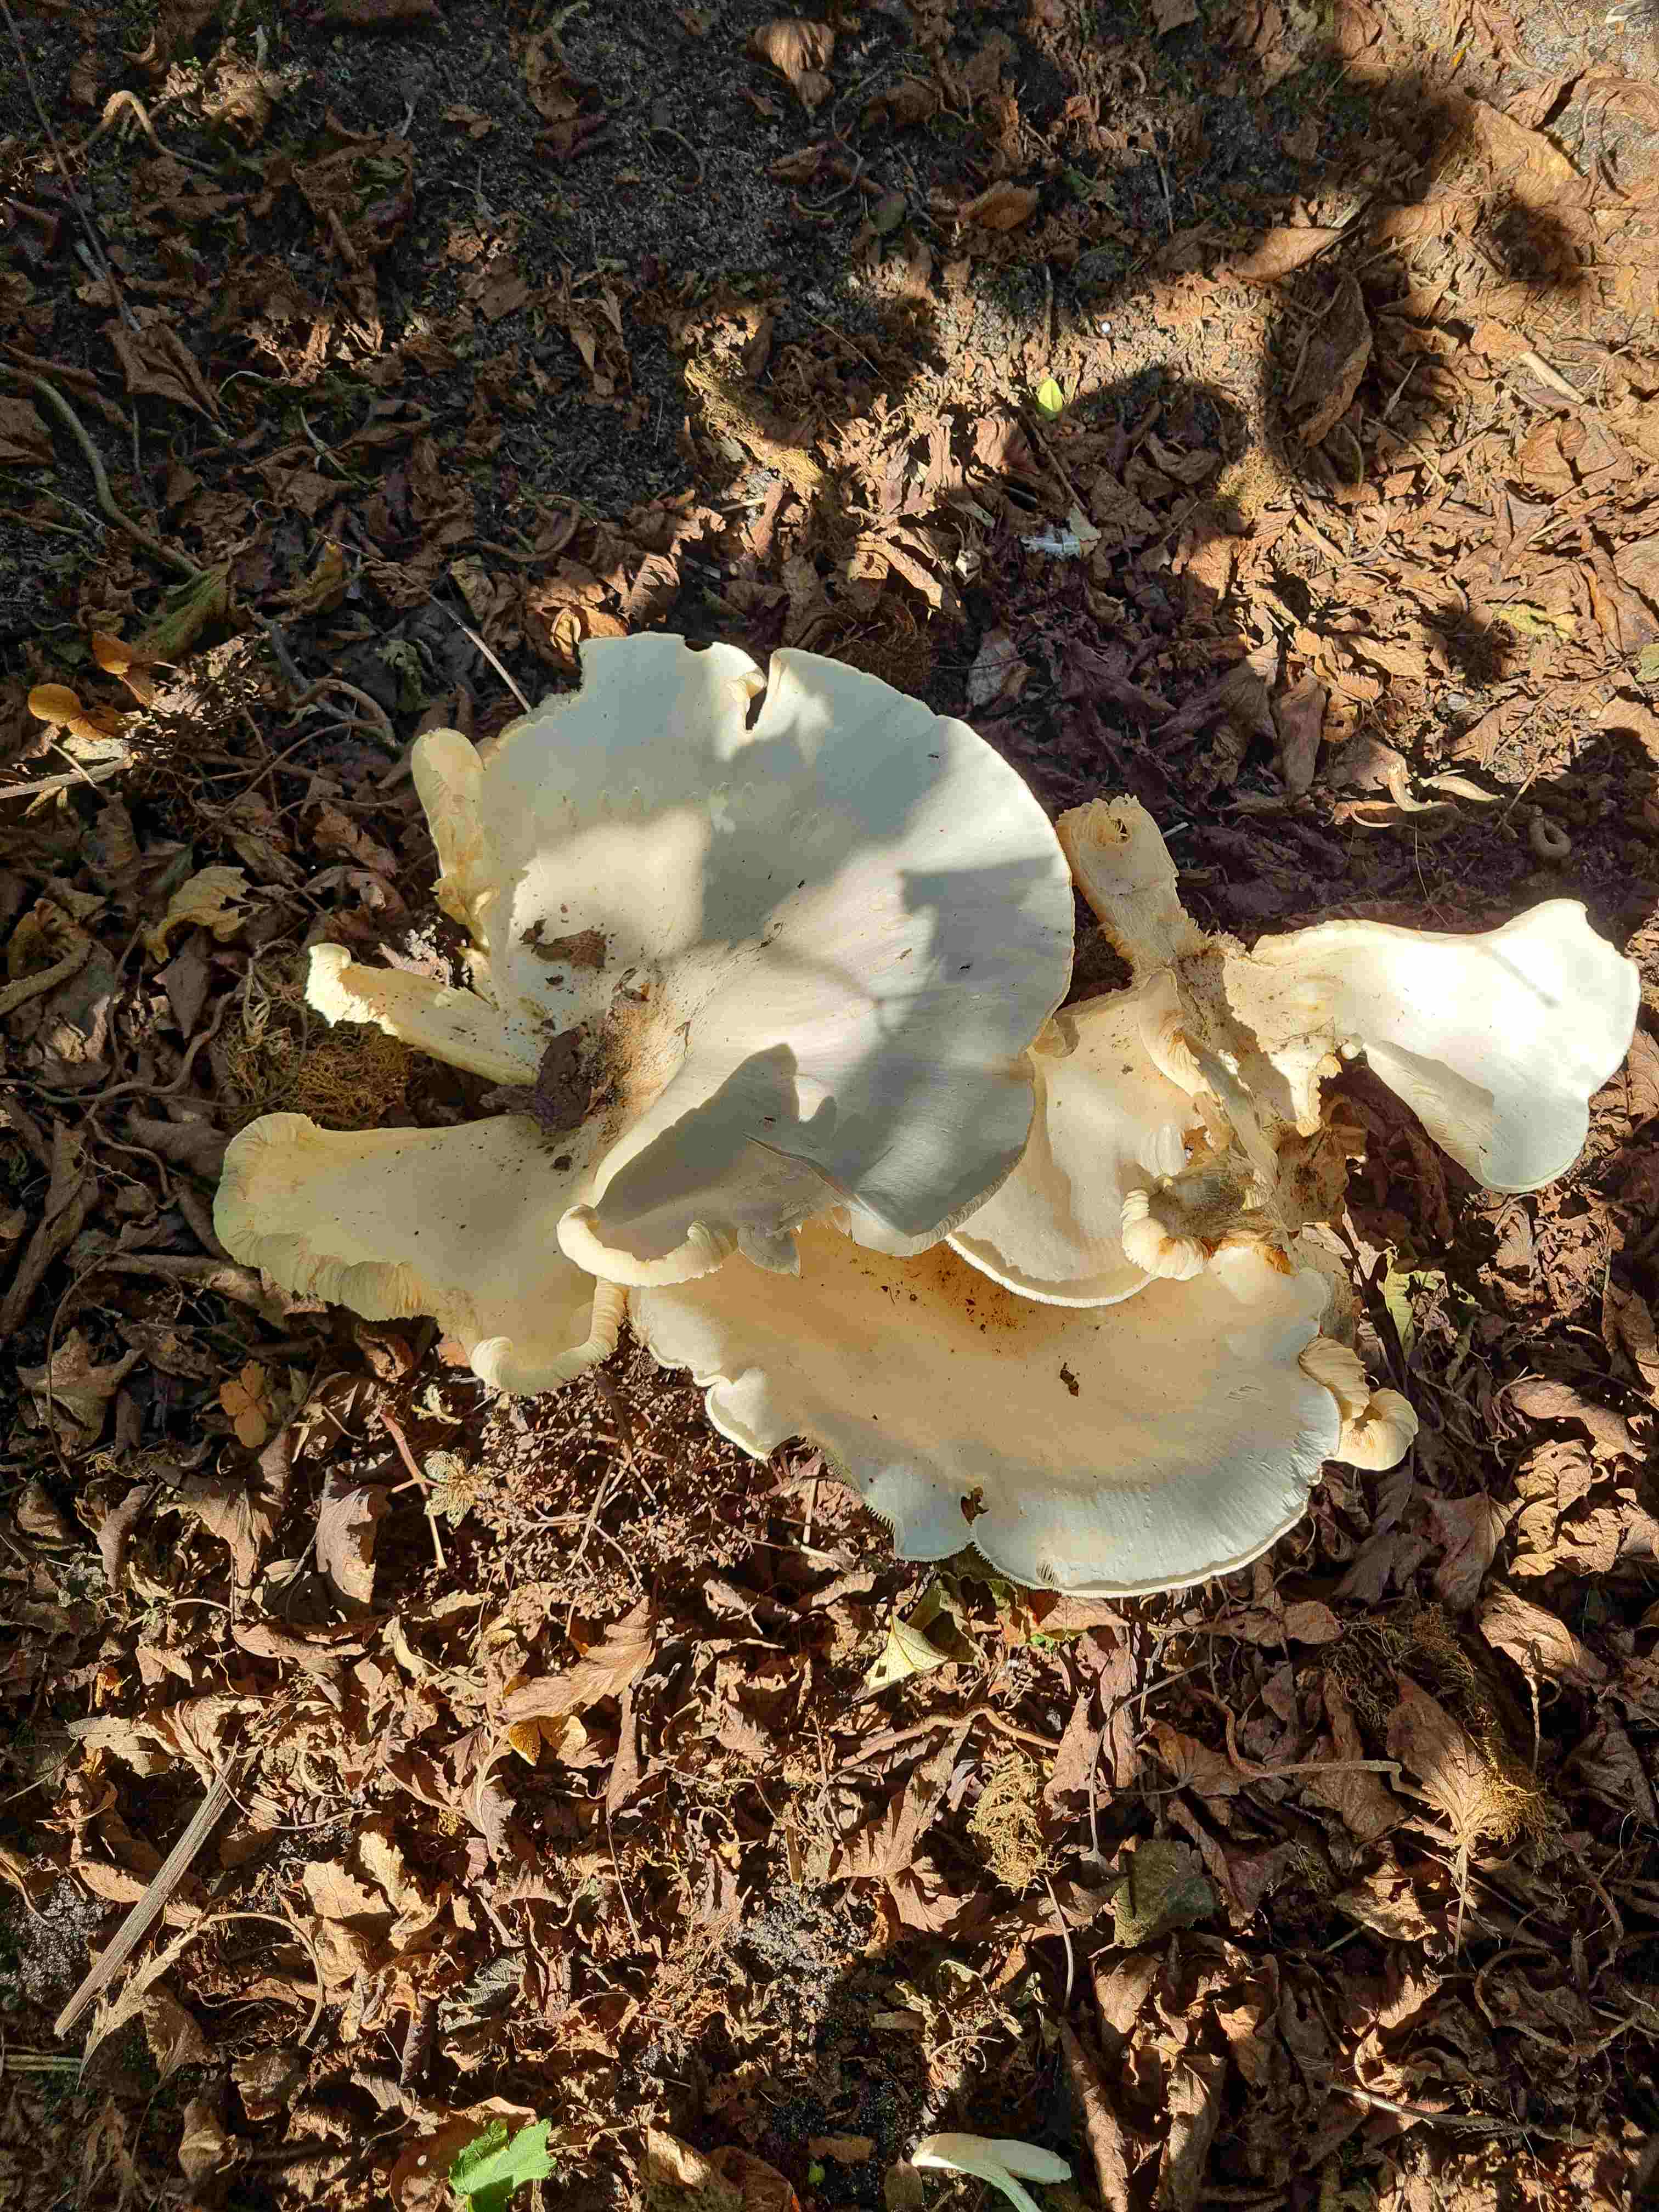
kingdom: Fungi
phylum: Basidiomycota
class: Agaricomycetes
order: Agaricales
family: Tricholomataceae
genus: Aspropaxillus
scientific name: Aspropaxillus giganteus
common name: kæmpe-tragtridderhat
